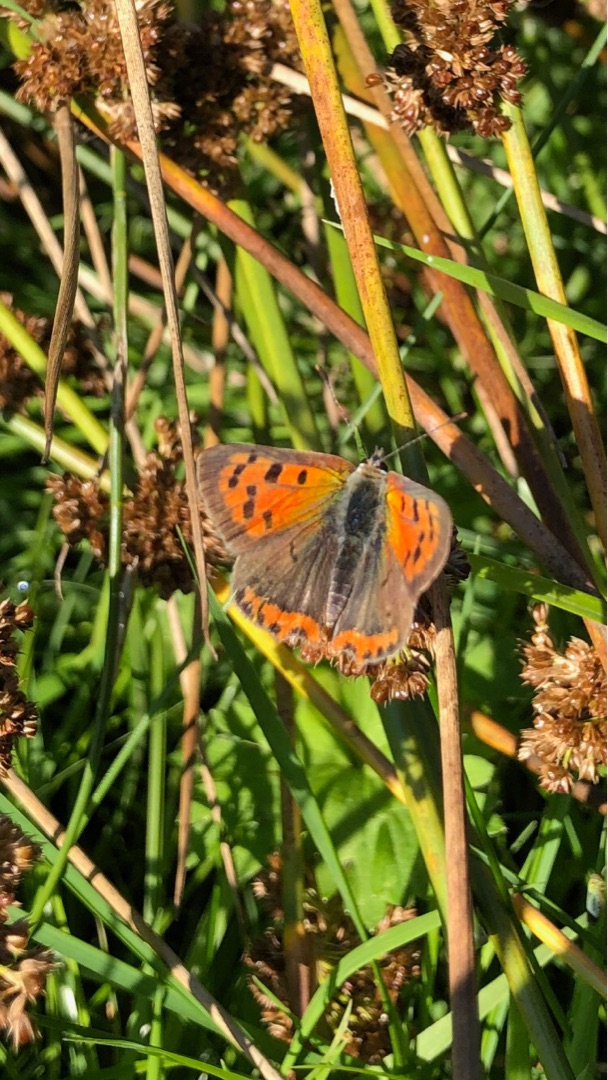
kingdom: Animalia
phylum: Arthropoda
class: Insecta
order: Lepidoptera
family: Lycaenidae
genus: Lycaena
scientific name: Lycaena phlaeas
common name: Lille ildfugl
